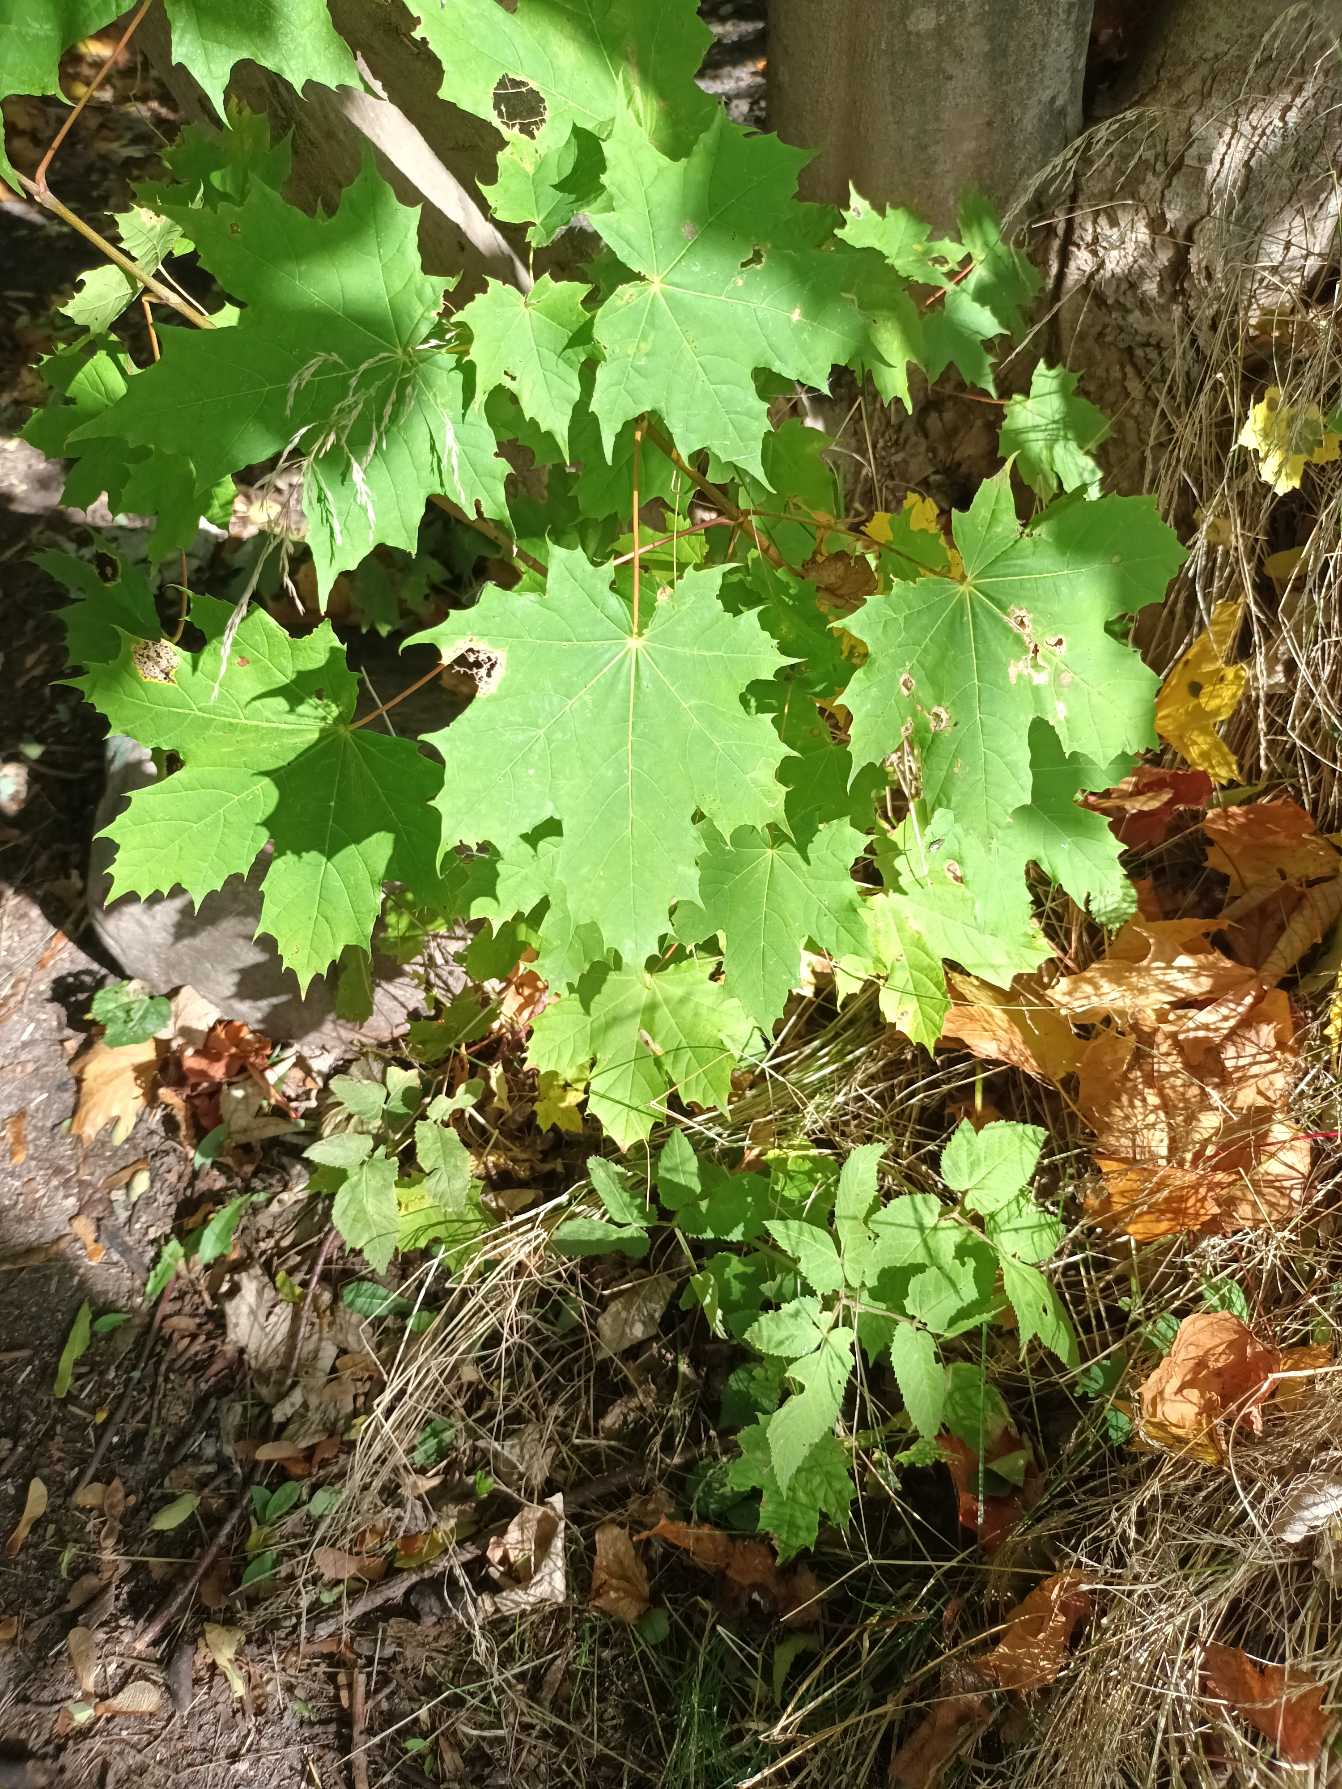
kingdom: Plantae
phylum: Tracheophyta
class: Magnoliopsida
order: Sapindales
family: Sapindaceae
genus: Acer
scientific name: Acer platanoides
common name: Spids-løn
